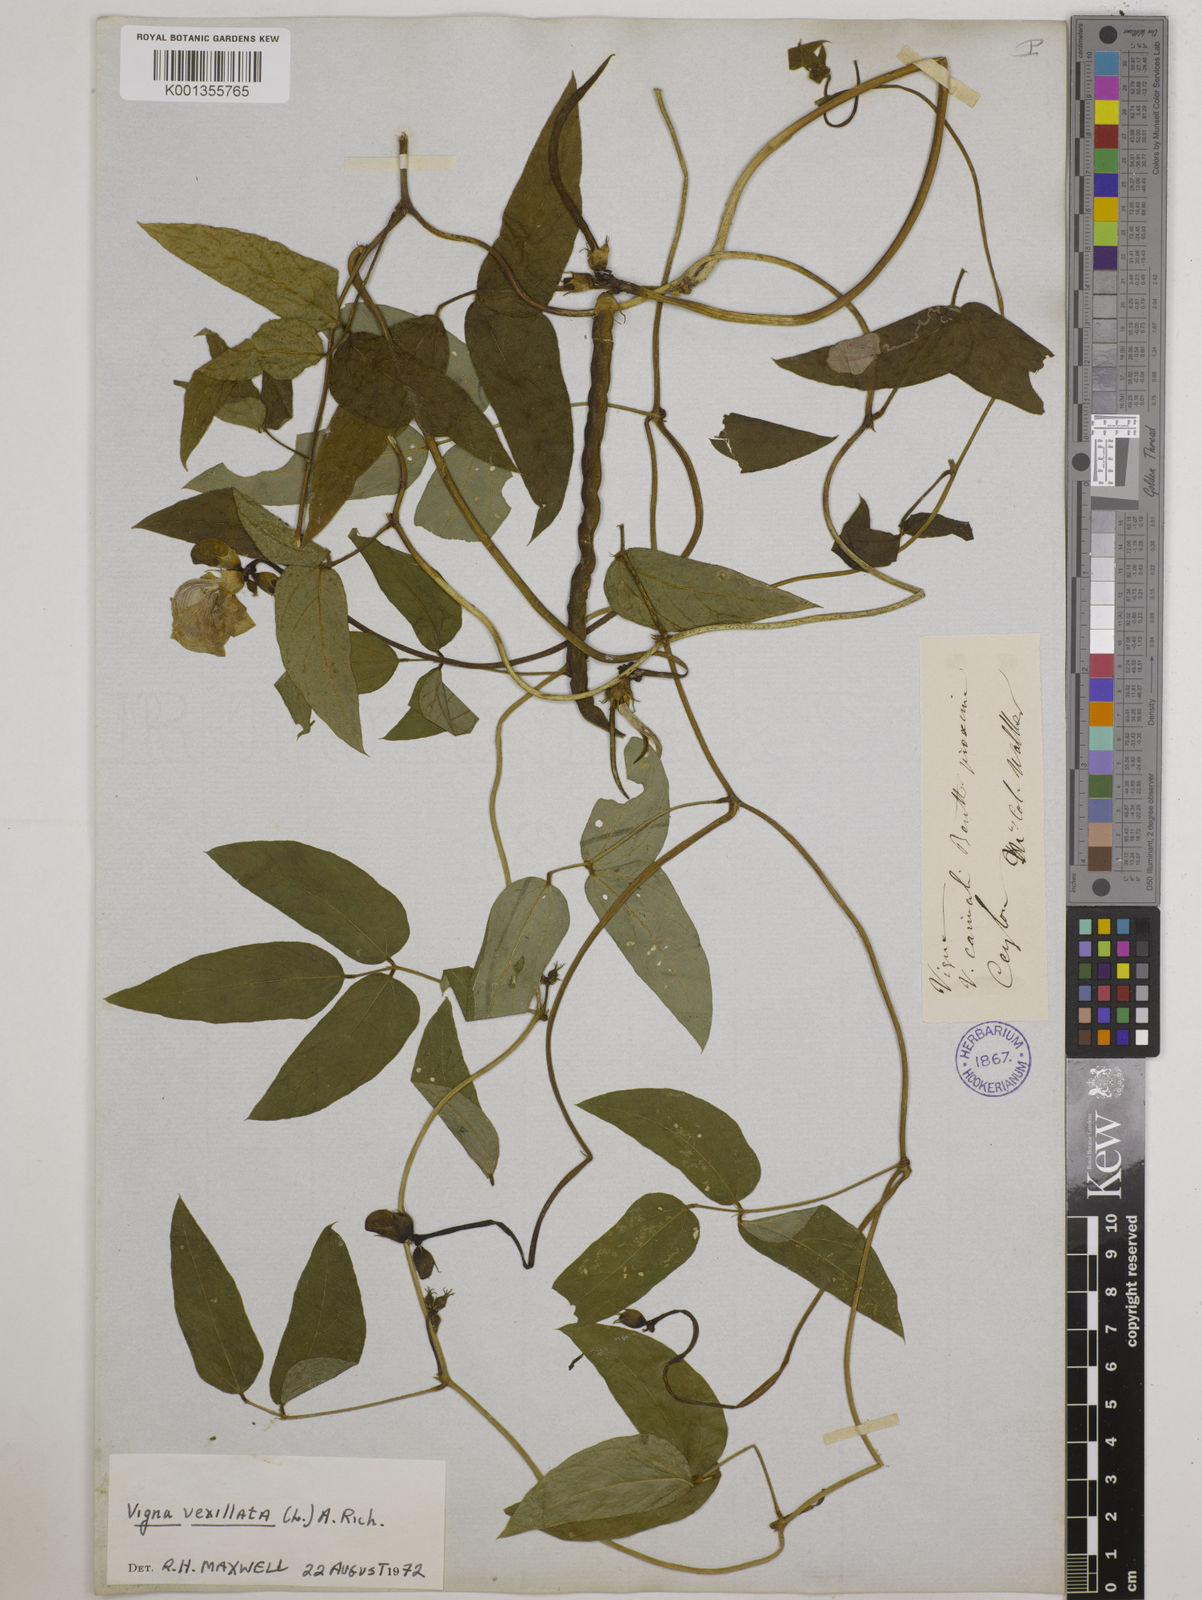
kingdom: Plantae
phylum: Tracheophyta
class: Magnoliopsida
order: Fabales
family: Fabaceae
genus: Vigna
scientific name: Vigna vexillata
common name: Zombi pea
